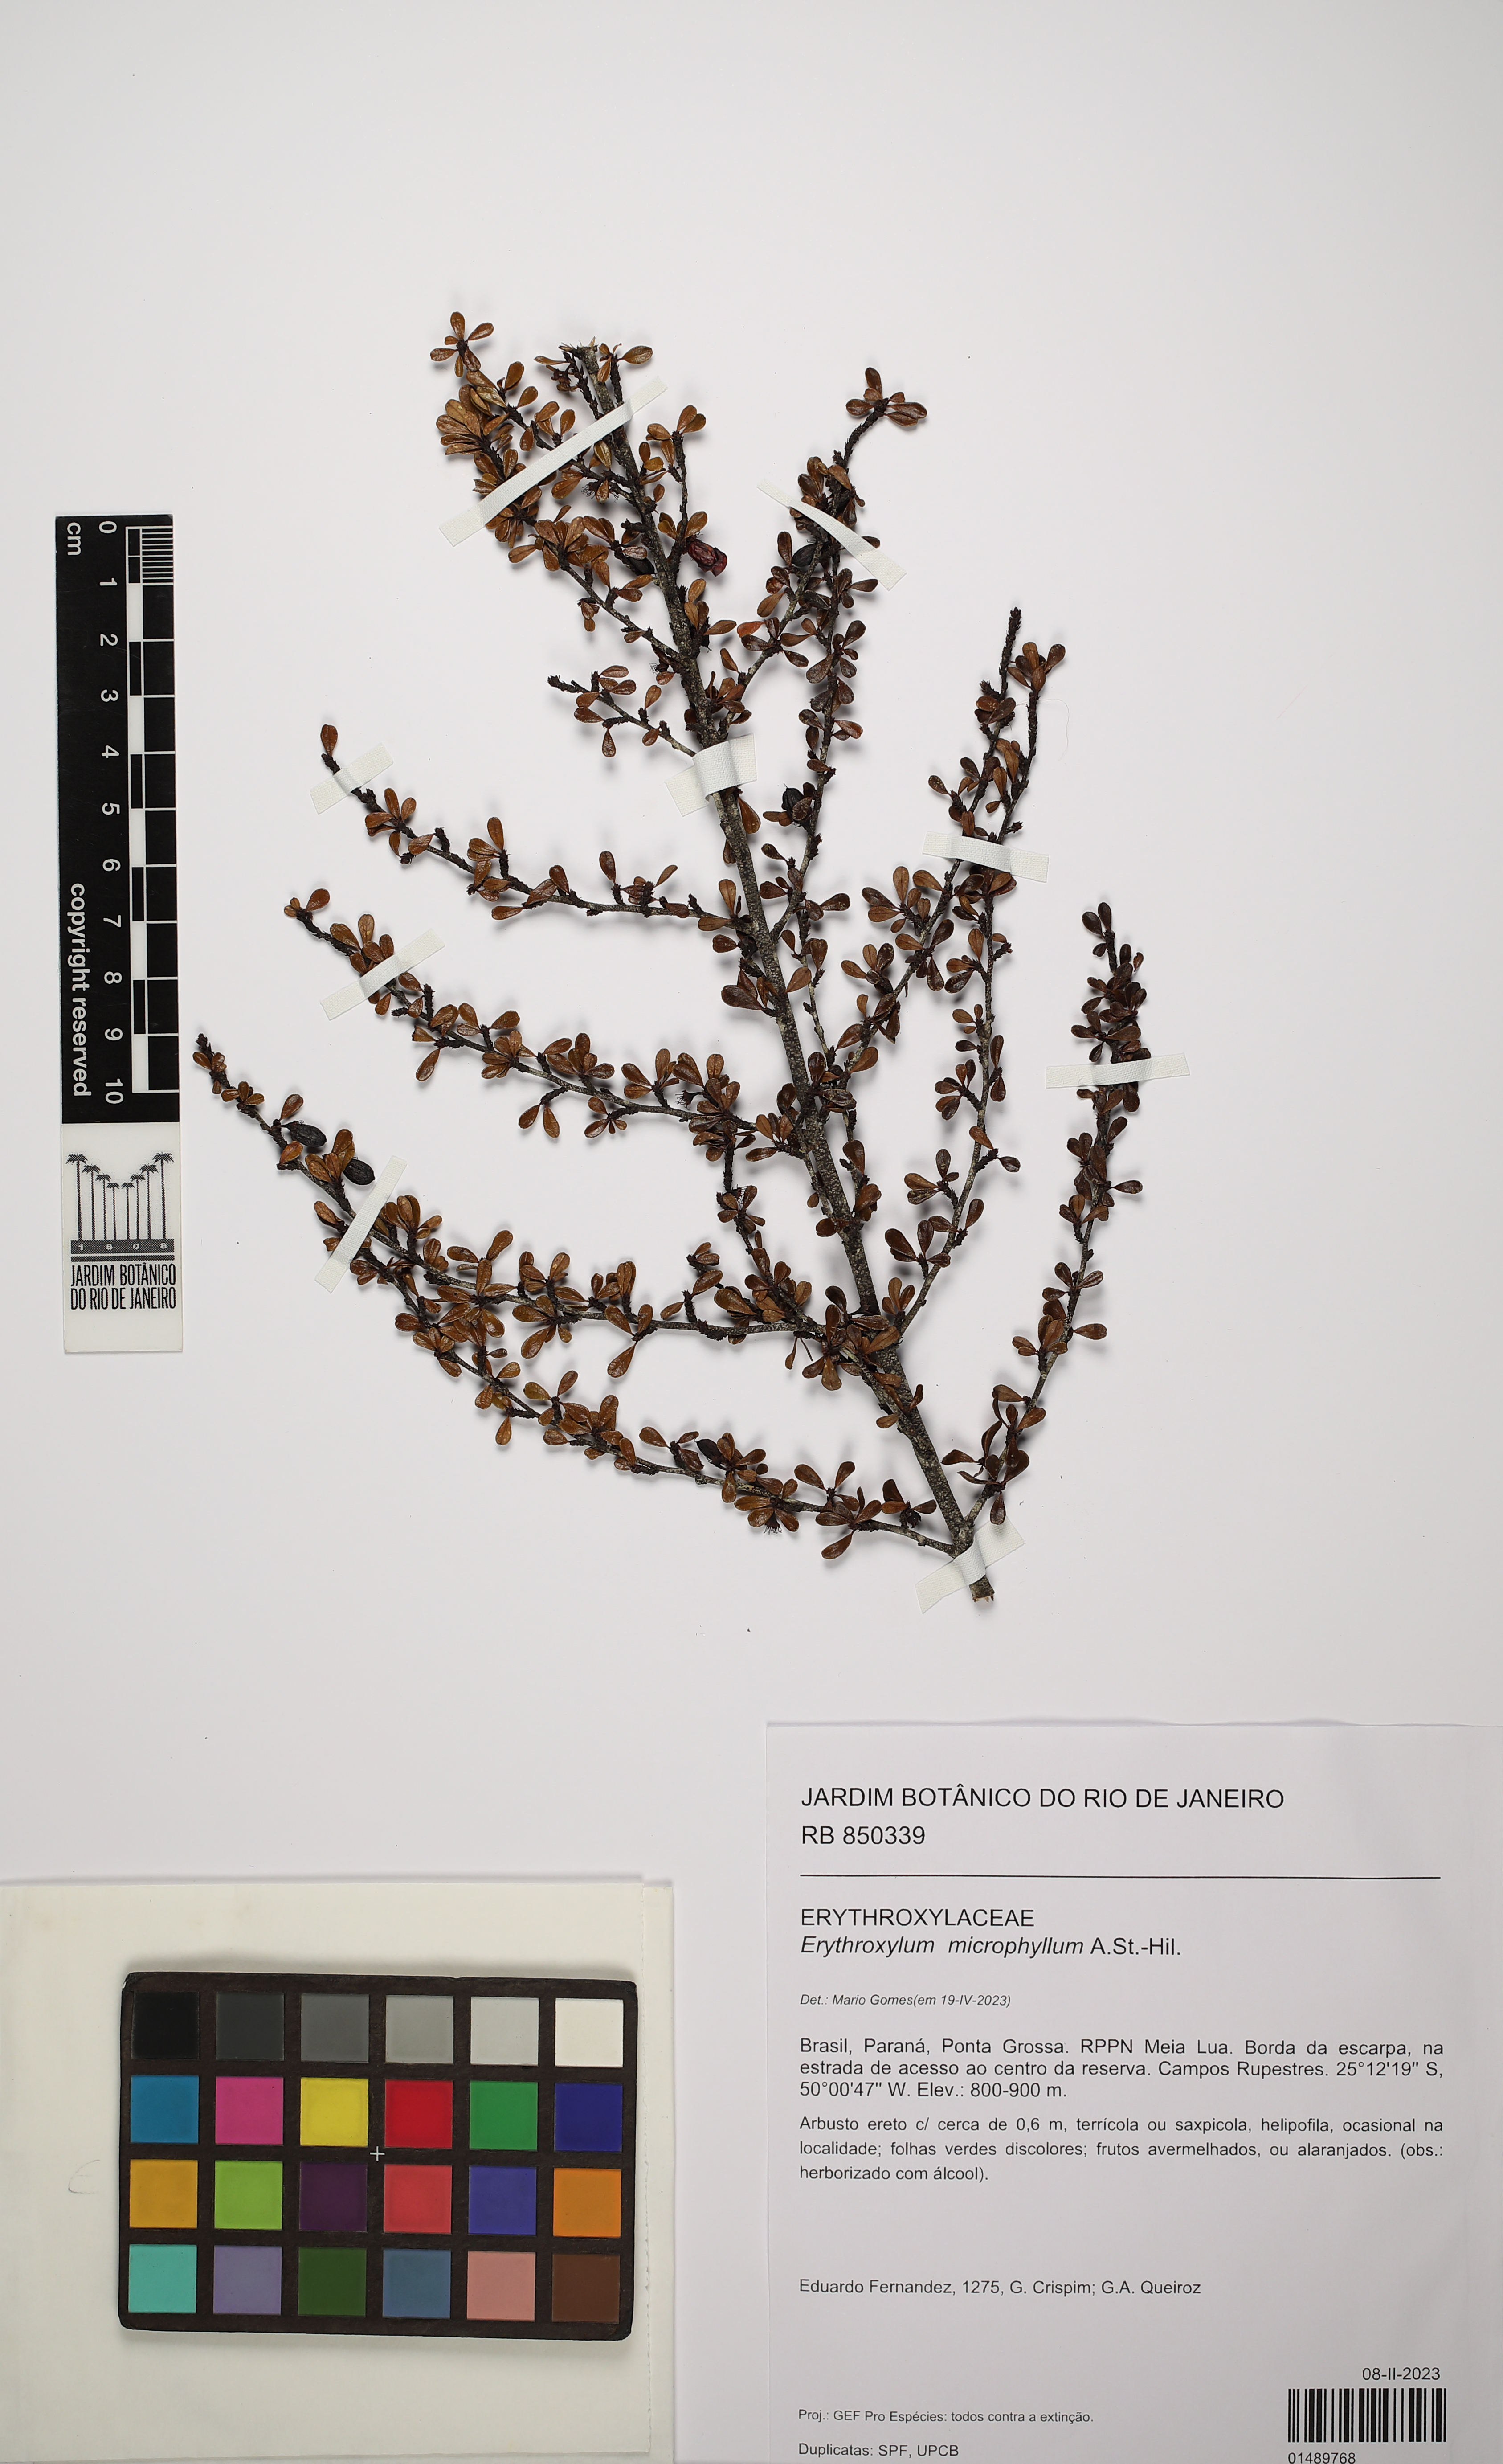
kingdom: Plantae
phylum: Tracheophyta
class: Magnoliopsida
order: Malpighiales
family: Erythroxylaceae
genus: Erythroxylum
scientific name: Erythroxylum microphyllum
